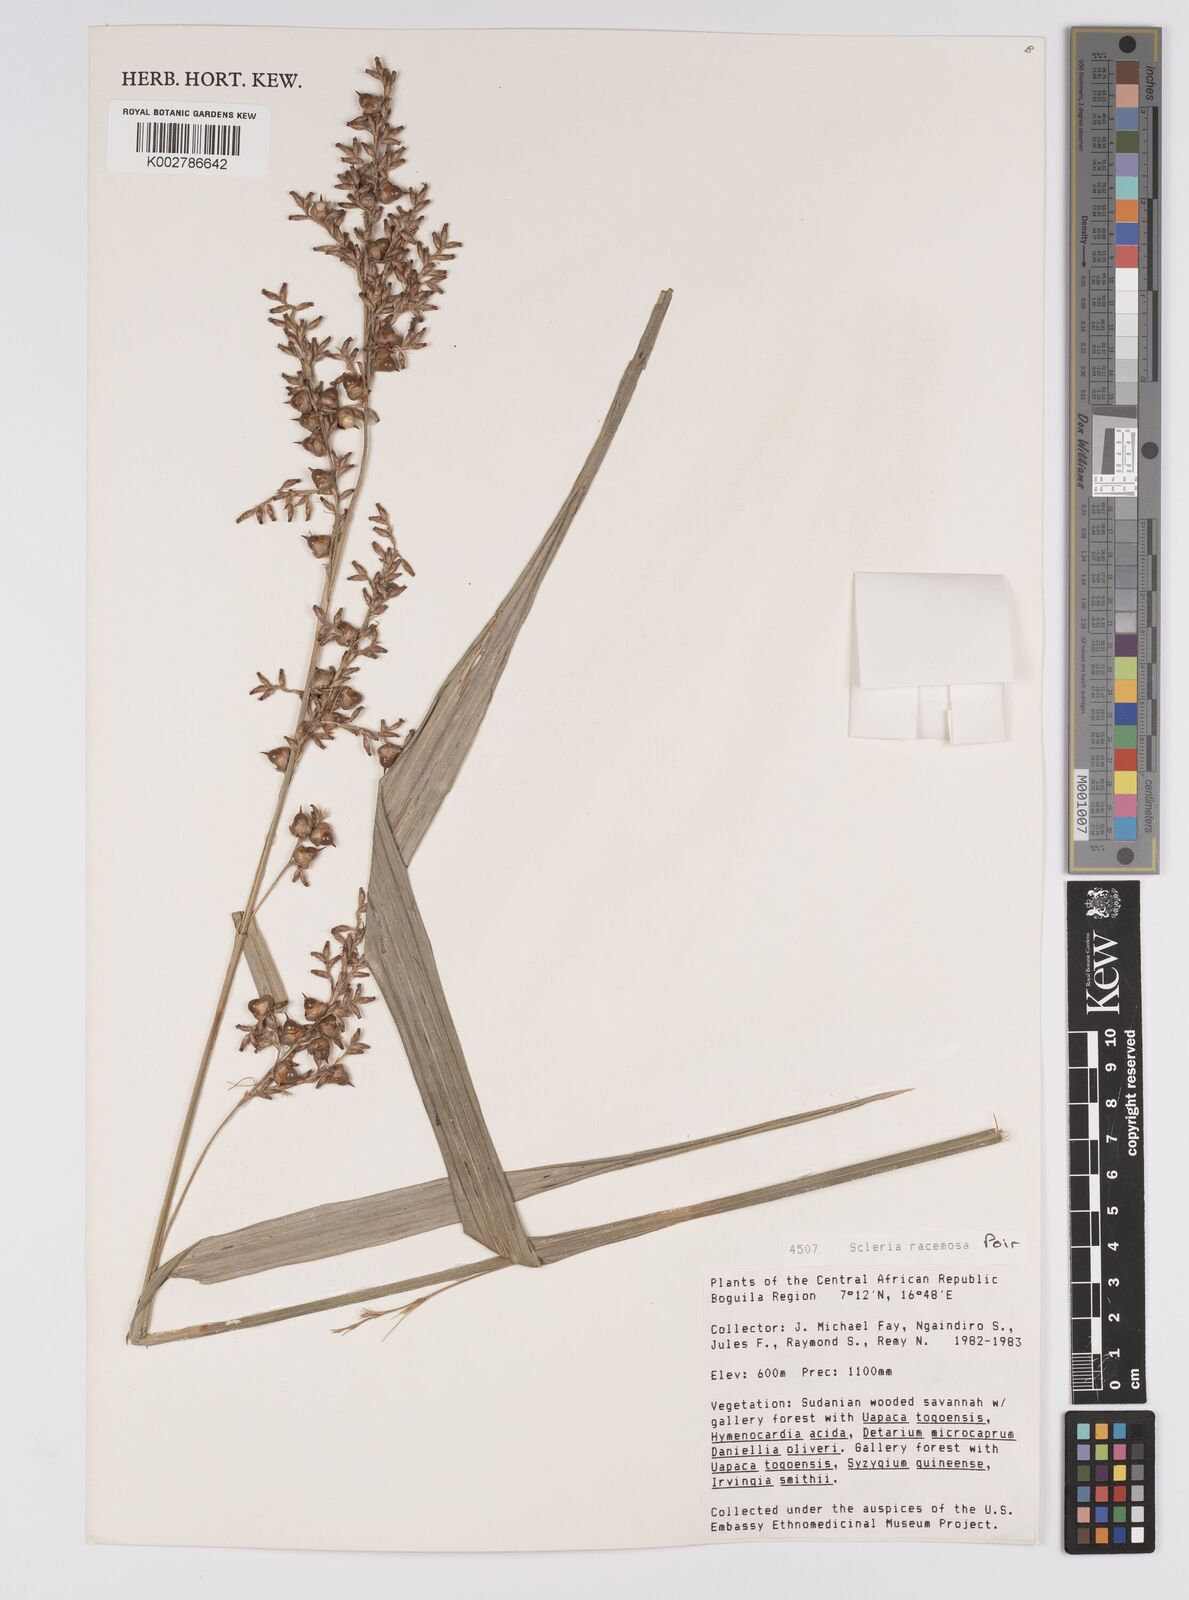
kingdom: Plantae
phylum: Tracheophyta
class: Liliopsida
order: Poales
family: Cyperaceae
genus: Scleria
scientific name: Scleria racemosa
